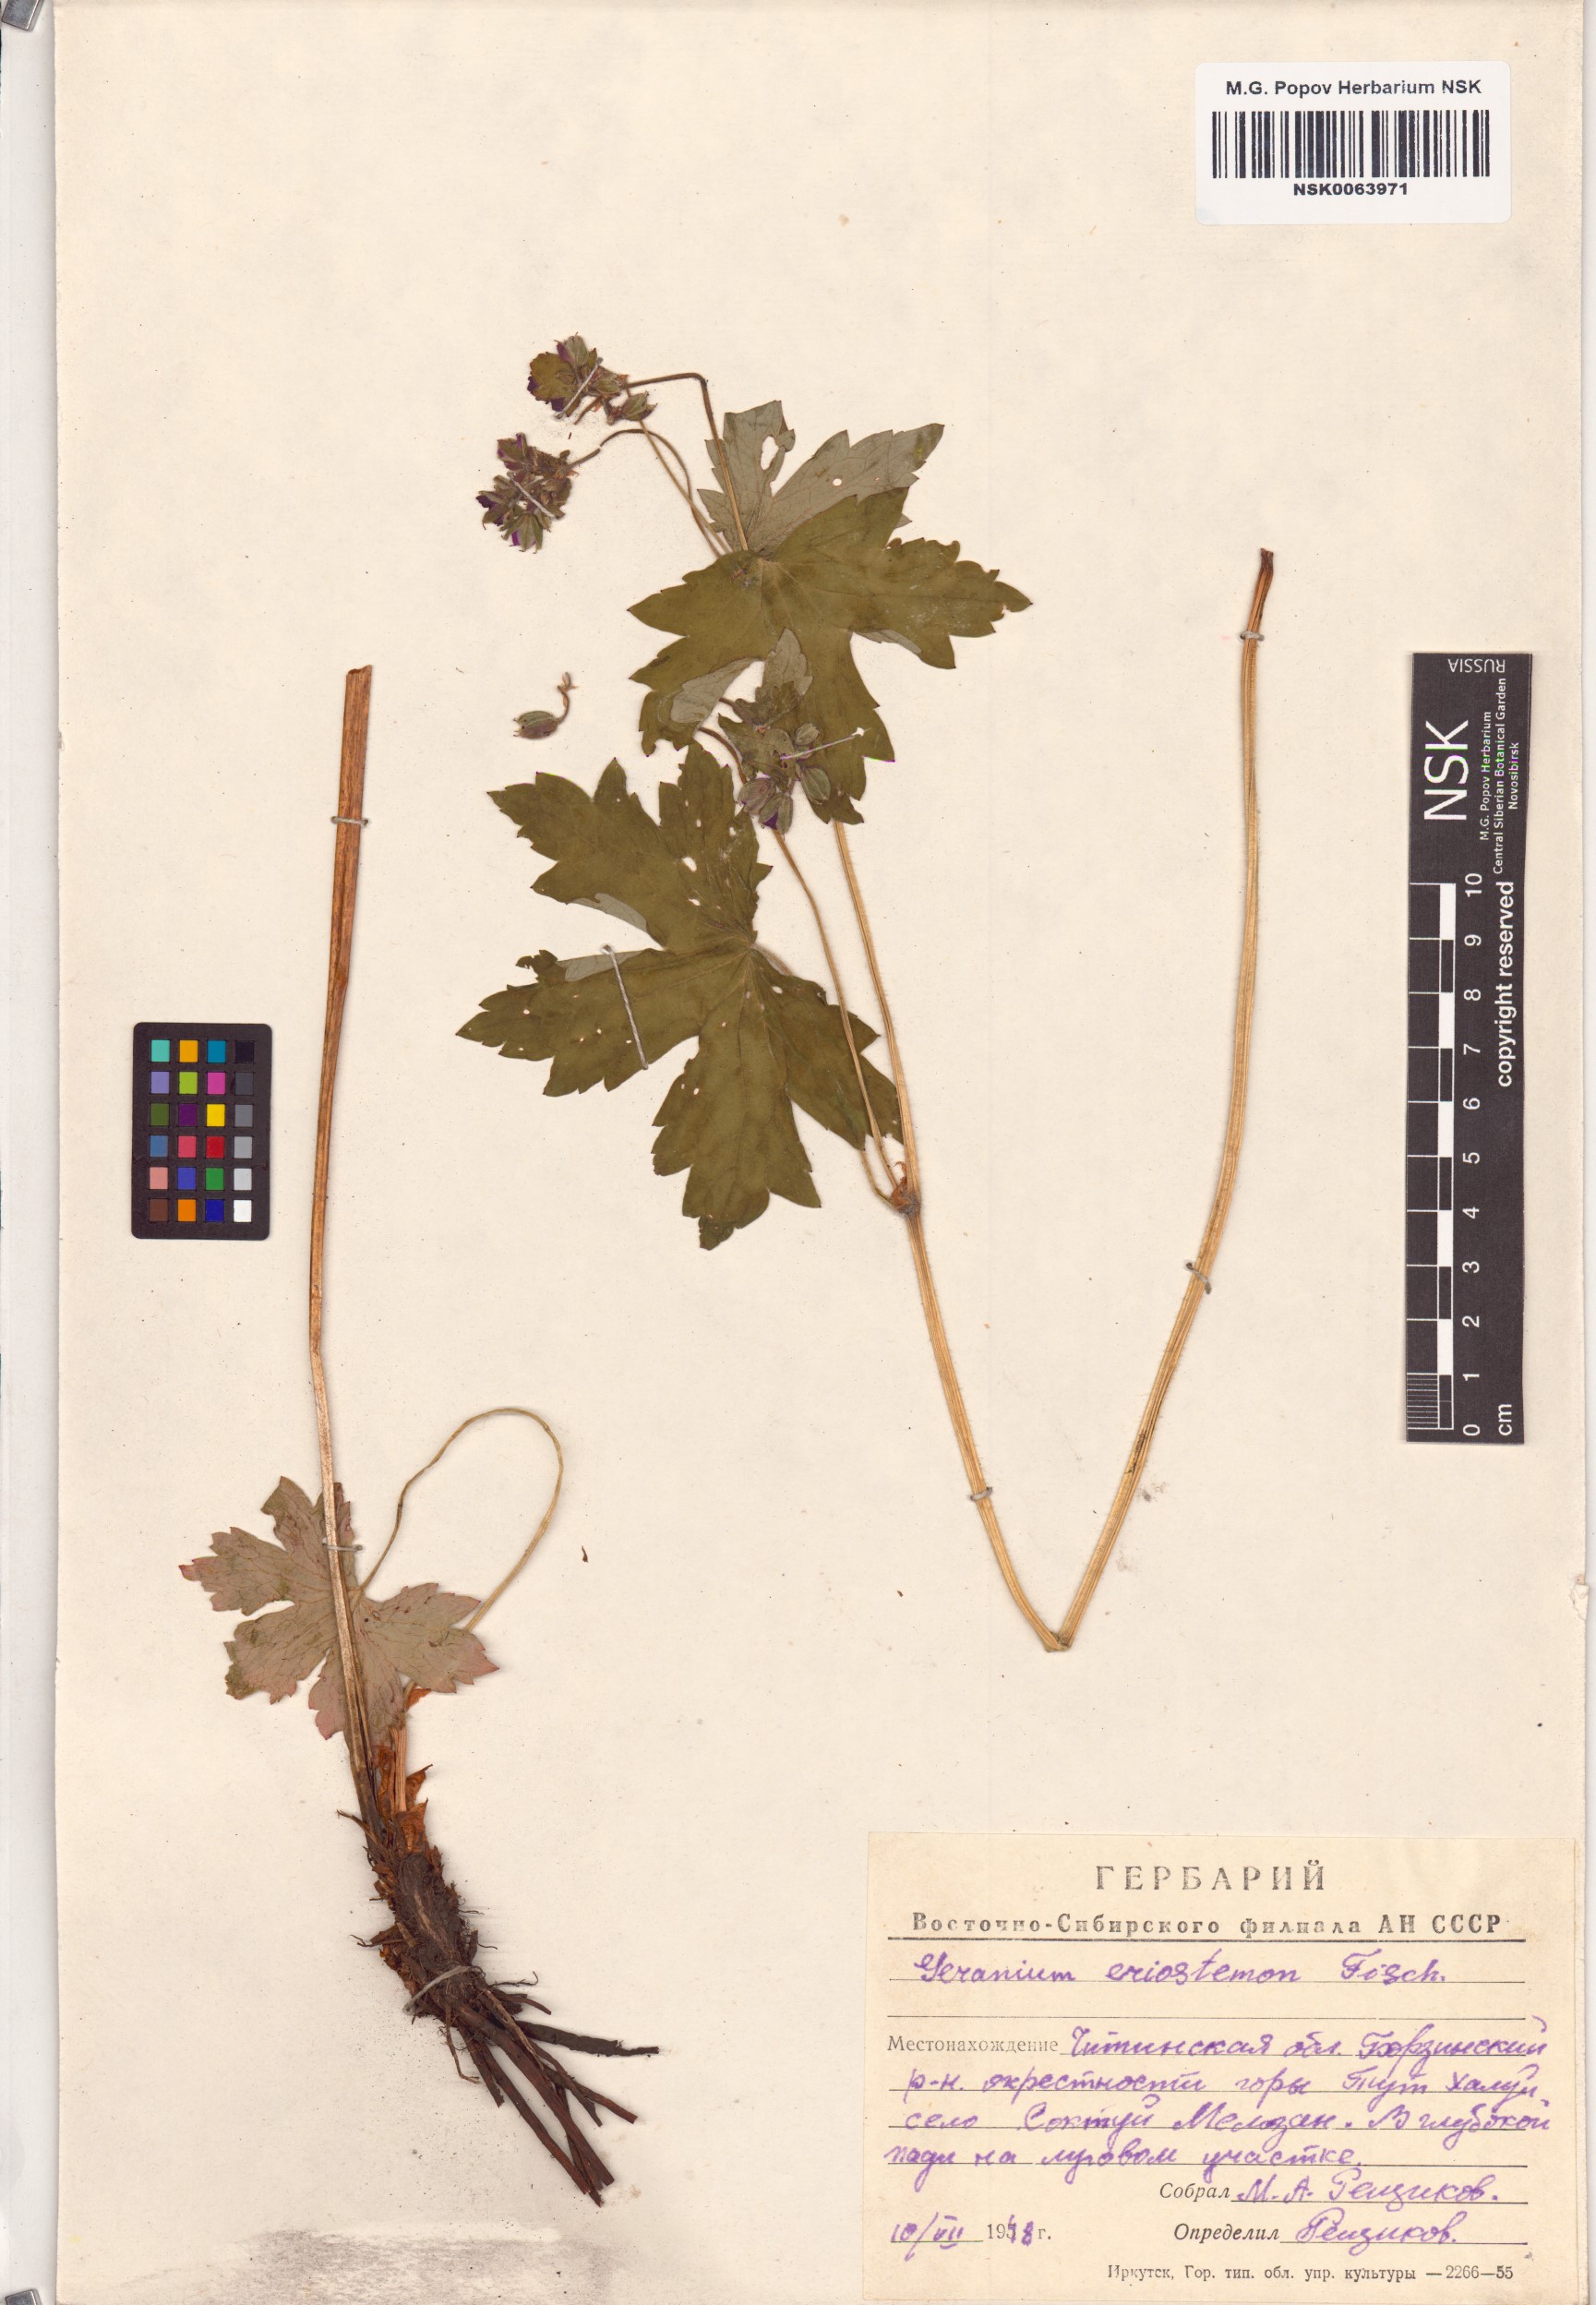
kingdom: Plantae
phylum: Tracheophyta
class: Magnoliopsida
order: Geraniales
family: Geraniaceae
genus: Geranium
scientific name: Geranium platyanthum
